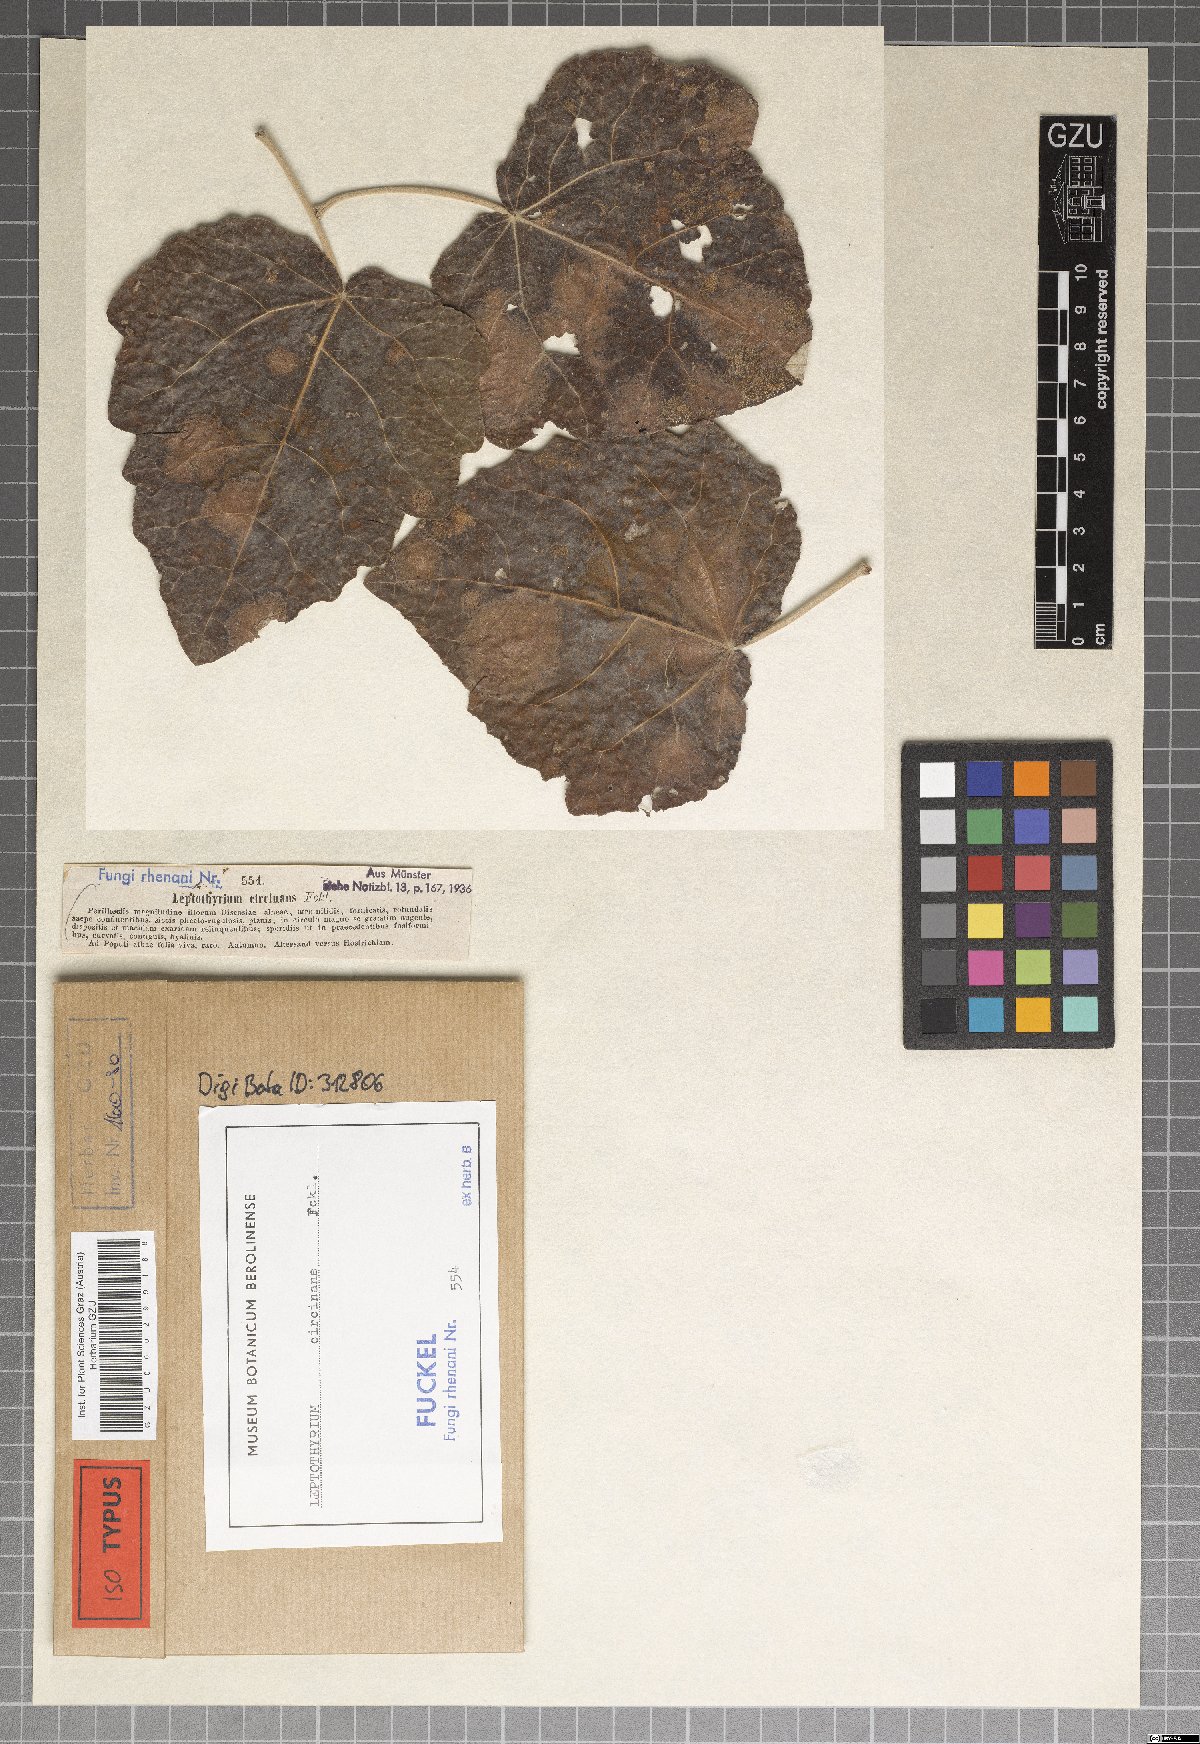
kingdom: Fungi
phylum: Ascomycota
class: Dothideomycetes
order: Pleosporales
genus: Leptothyrium
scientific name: Leptothyrium
